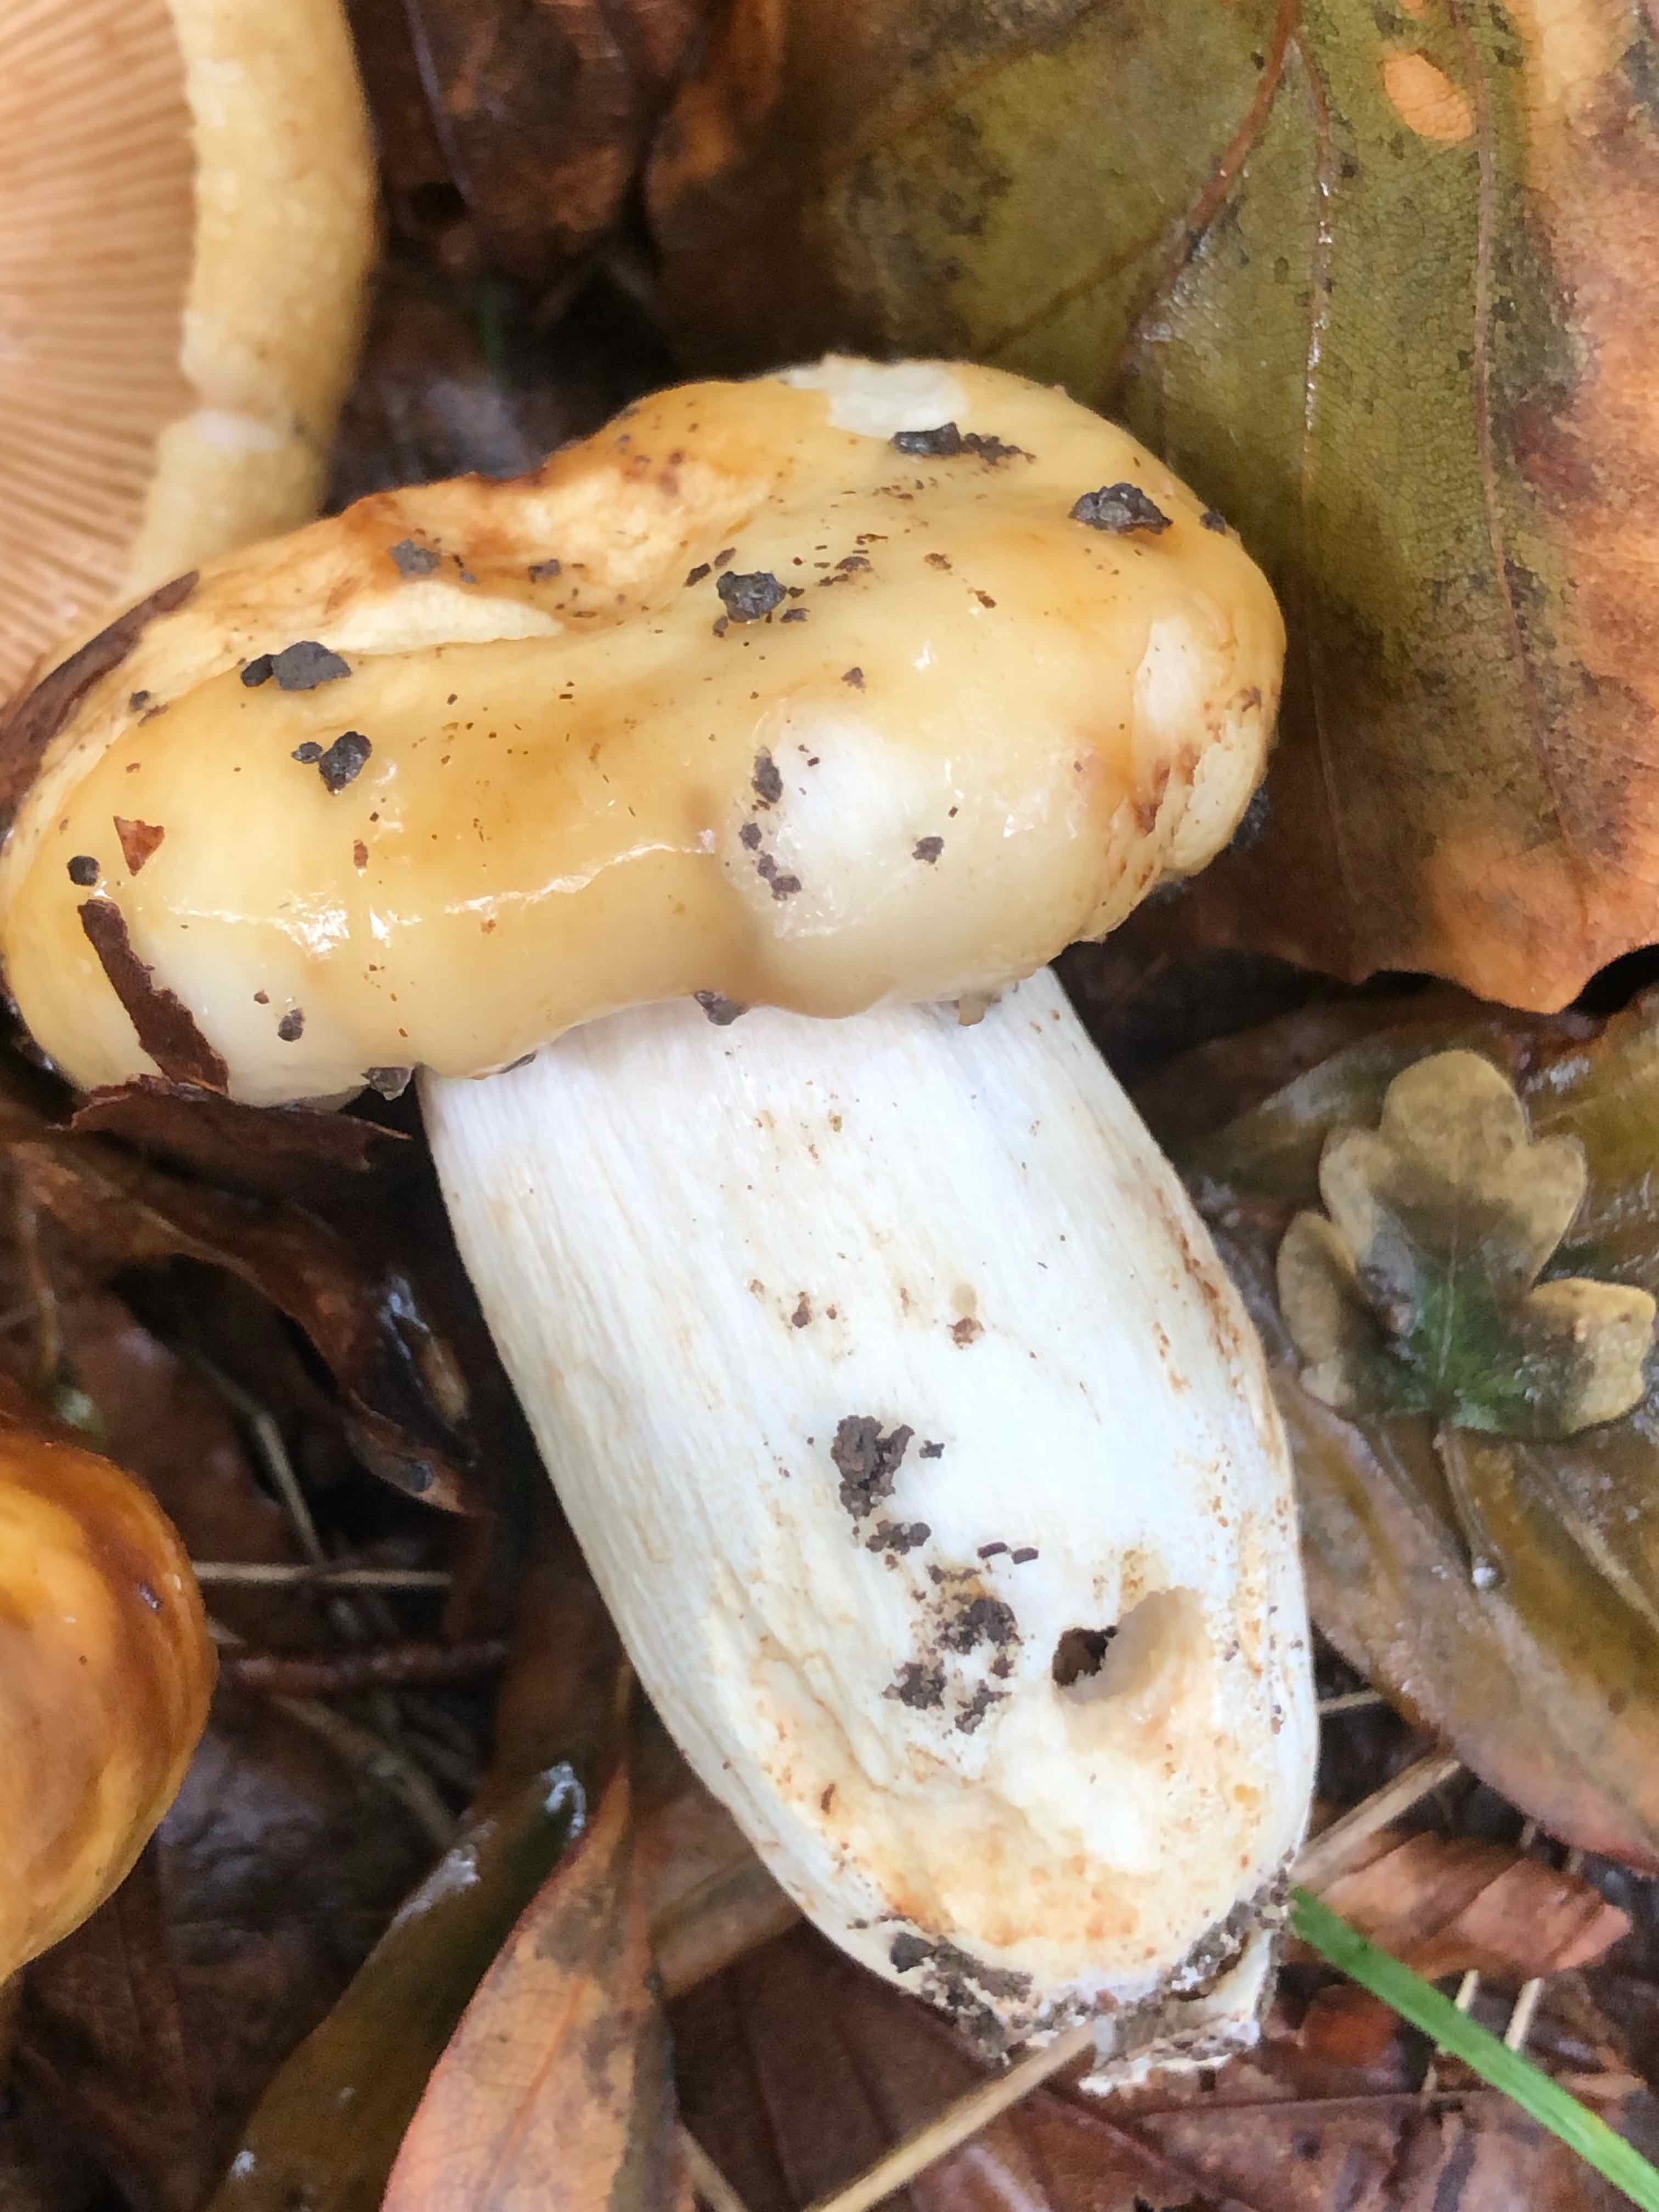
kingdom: Fungi
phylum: Basidiomycota
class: Agaricomycetes
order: Russulales
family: Russulaceae
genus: Russula
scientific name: Russula foetens
